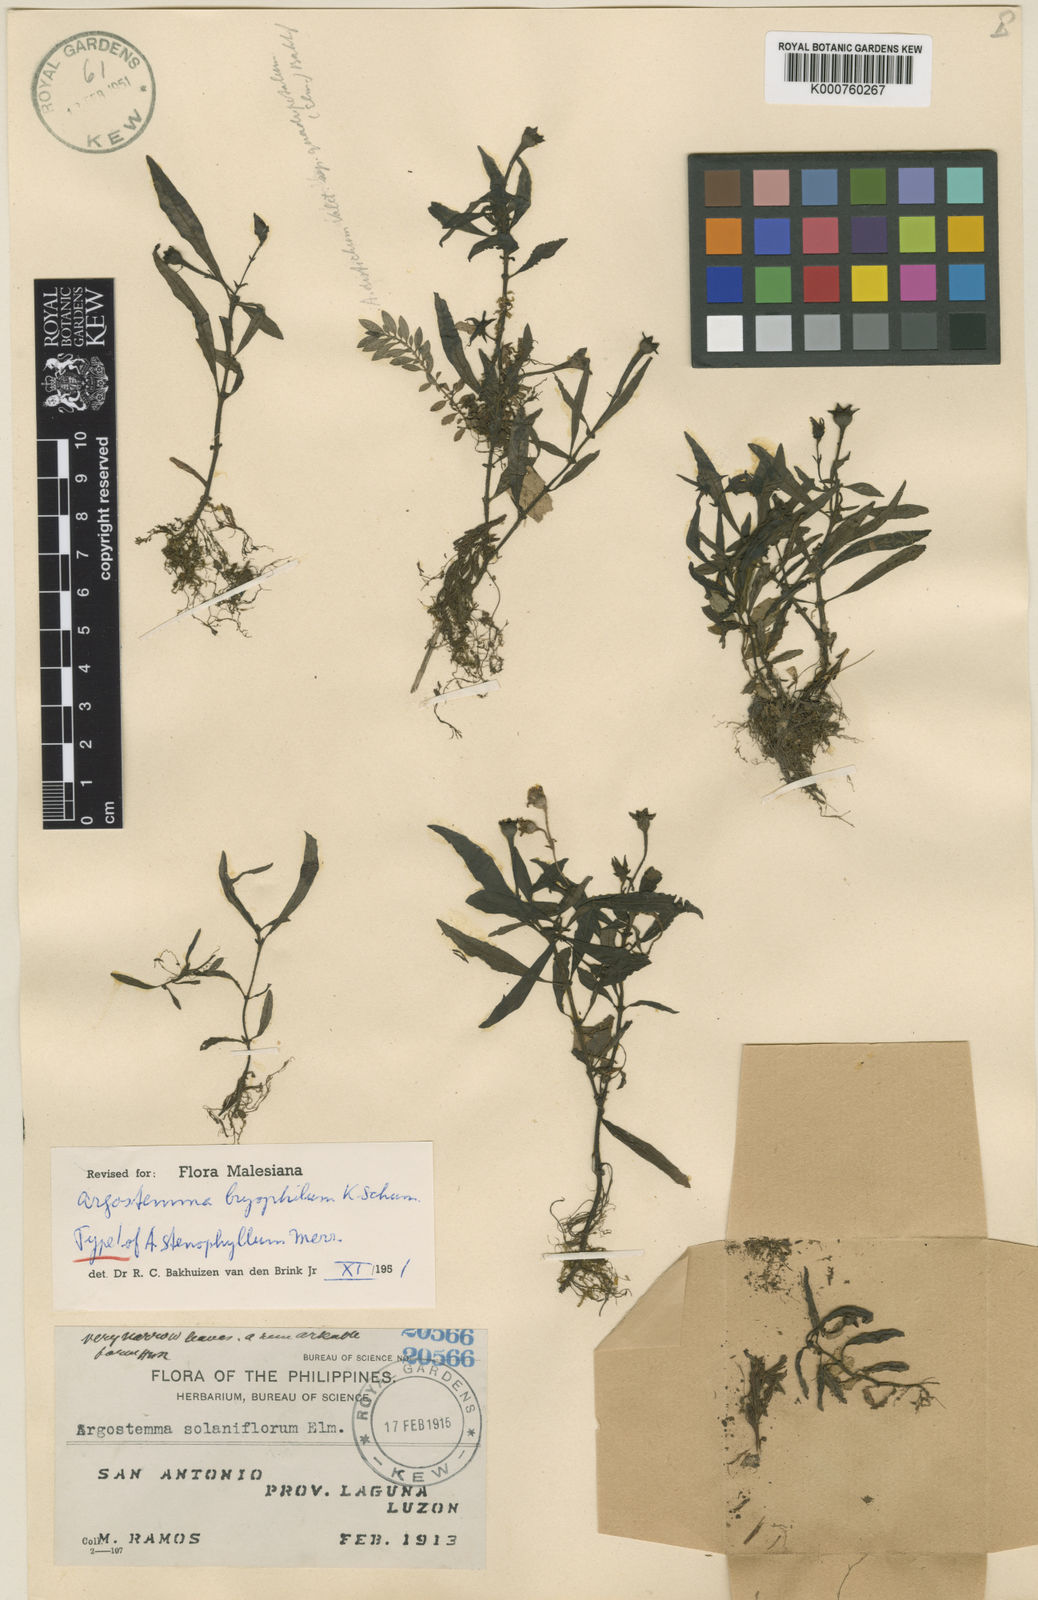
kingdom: Plantae
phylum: Tracheophyta
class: Magnoliopsida
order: Gentianales
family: Rubiaceae
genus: Argostemma
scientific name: Argostemma bryophilum
